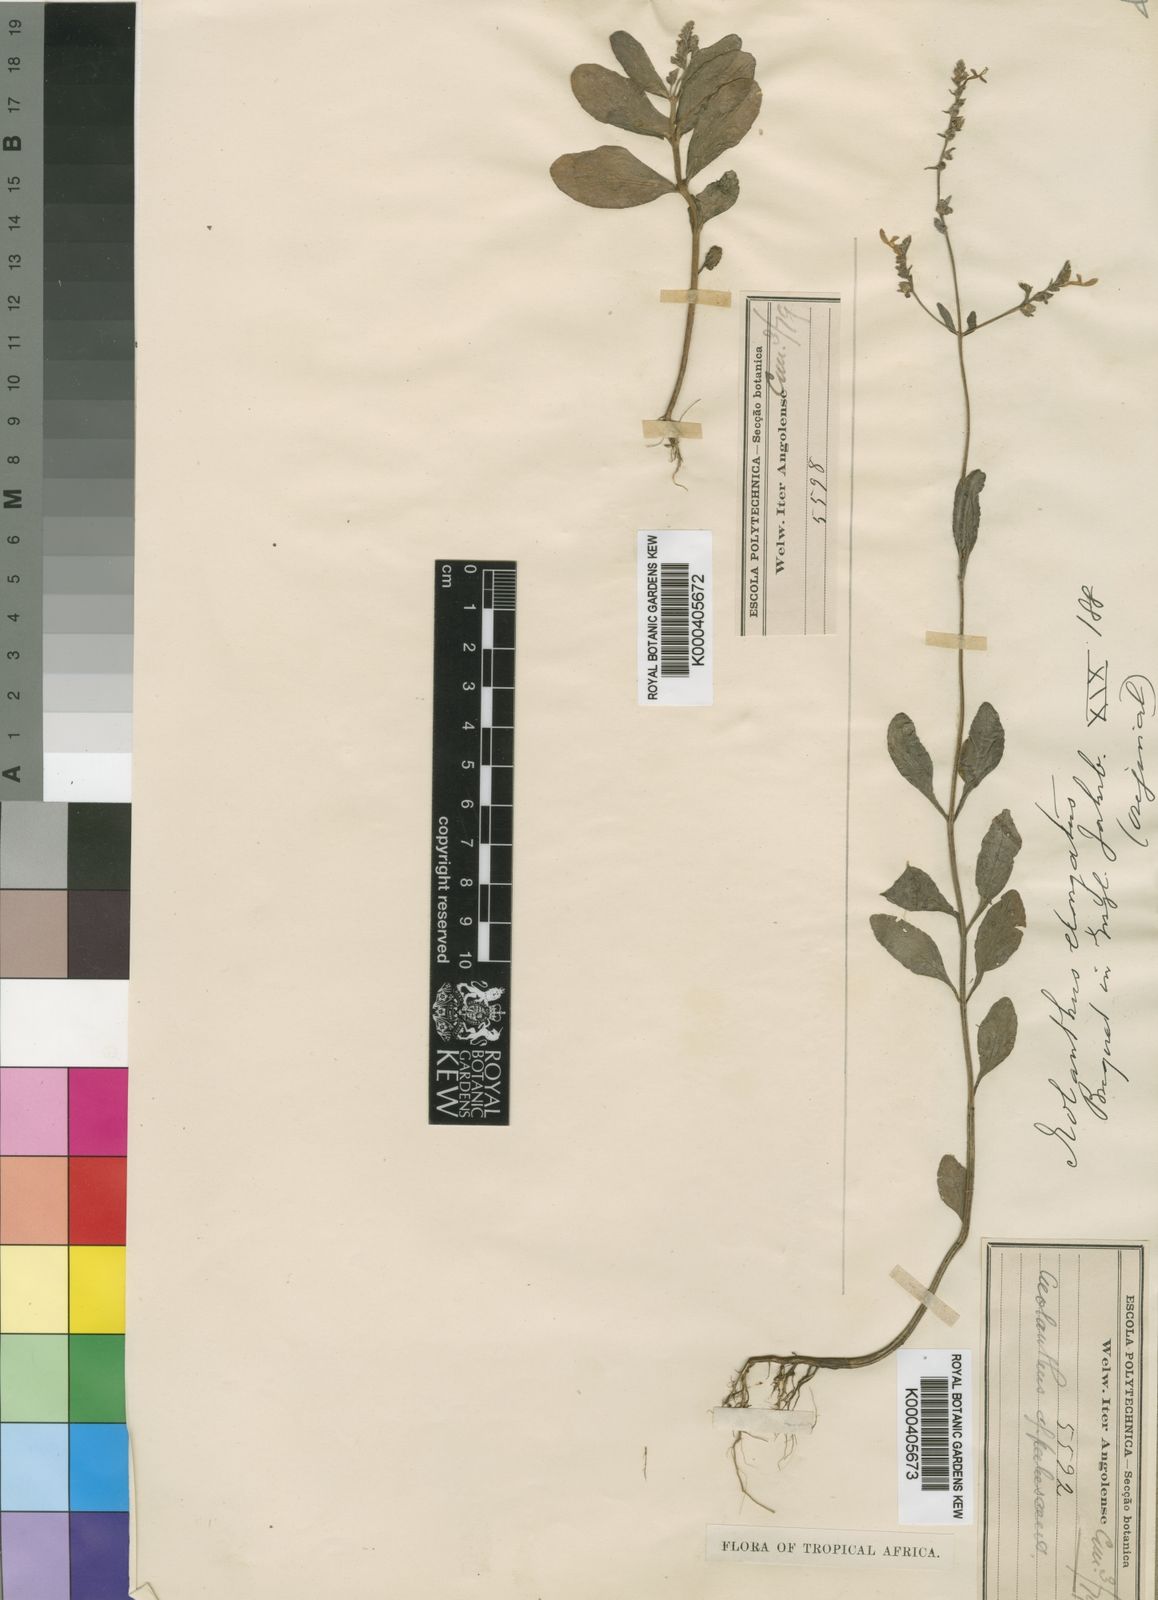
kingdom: Plantae
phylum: Tracheophyta
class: Magnoliopsida
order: Lamiales
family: Lamiaceae
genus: Aeollanthus
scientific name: Aeollanthus pubescens
